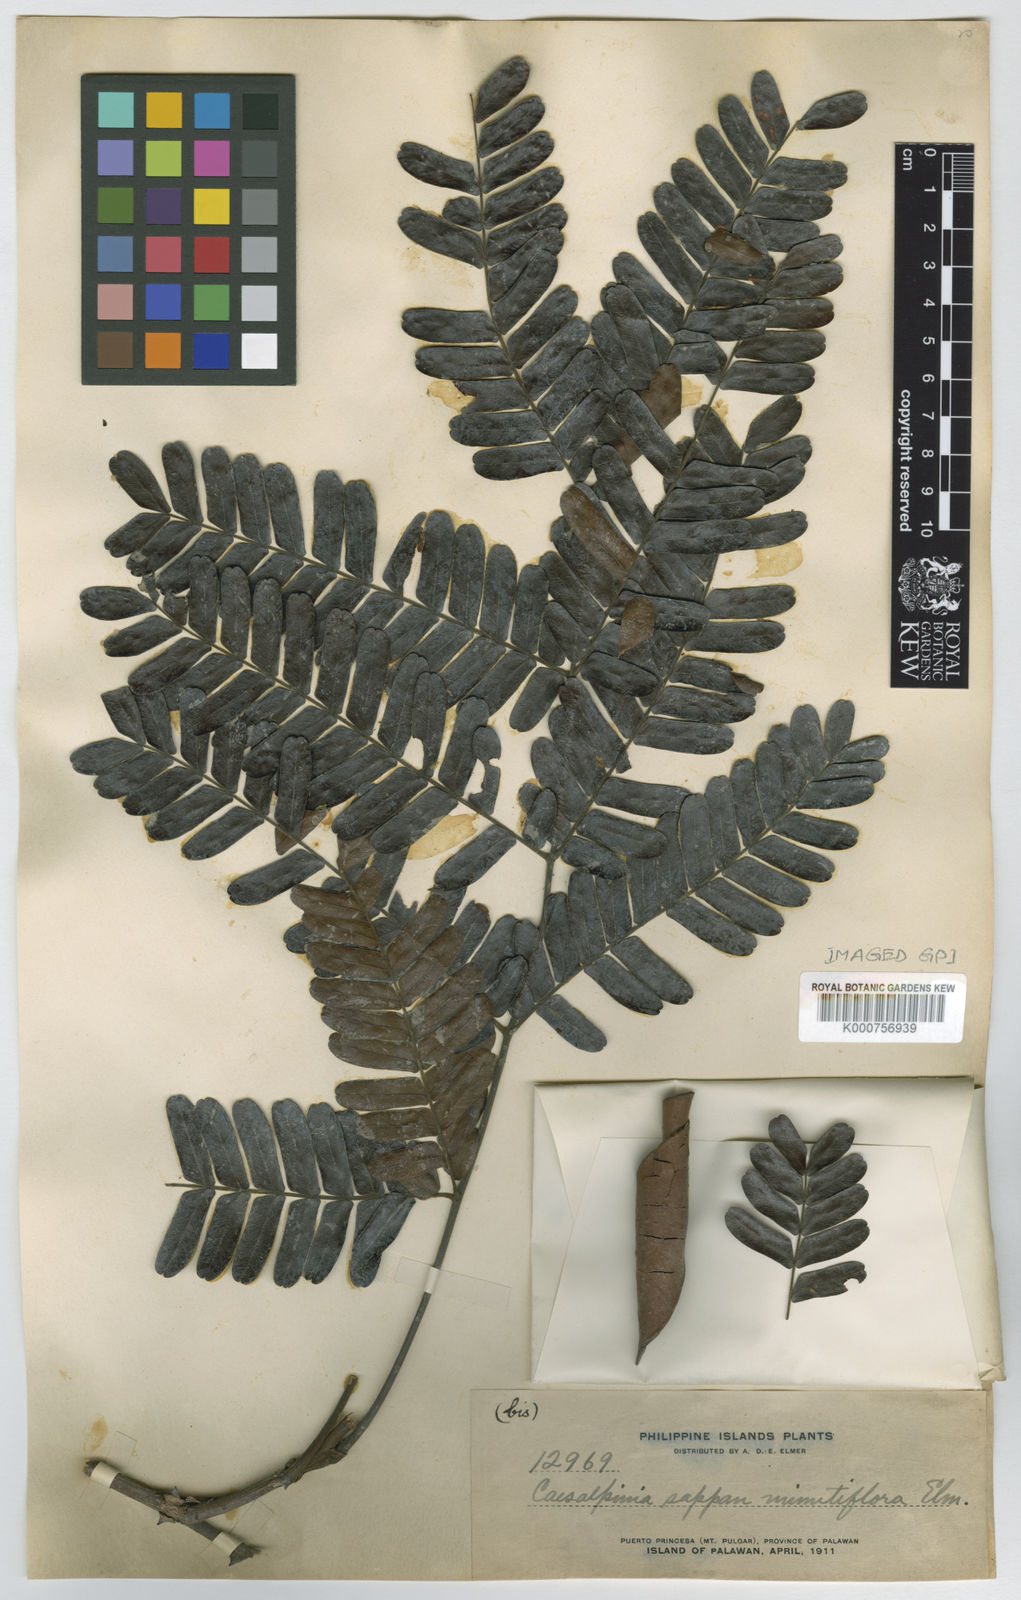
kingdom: Plantae
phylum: Tracheophyta
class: Magnoliopsida
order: Fabales
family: Fabaceae
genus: Caesalpinia
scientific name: Caesalpinia
